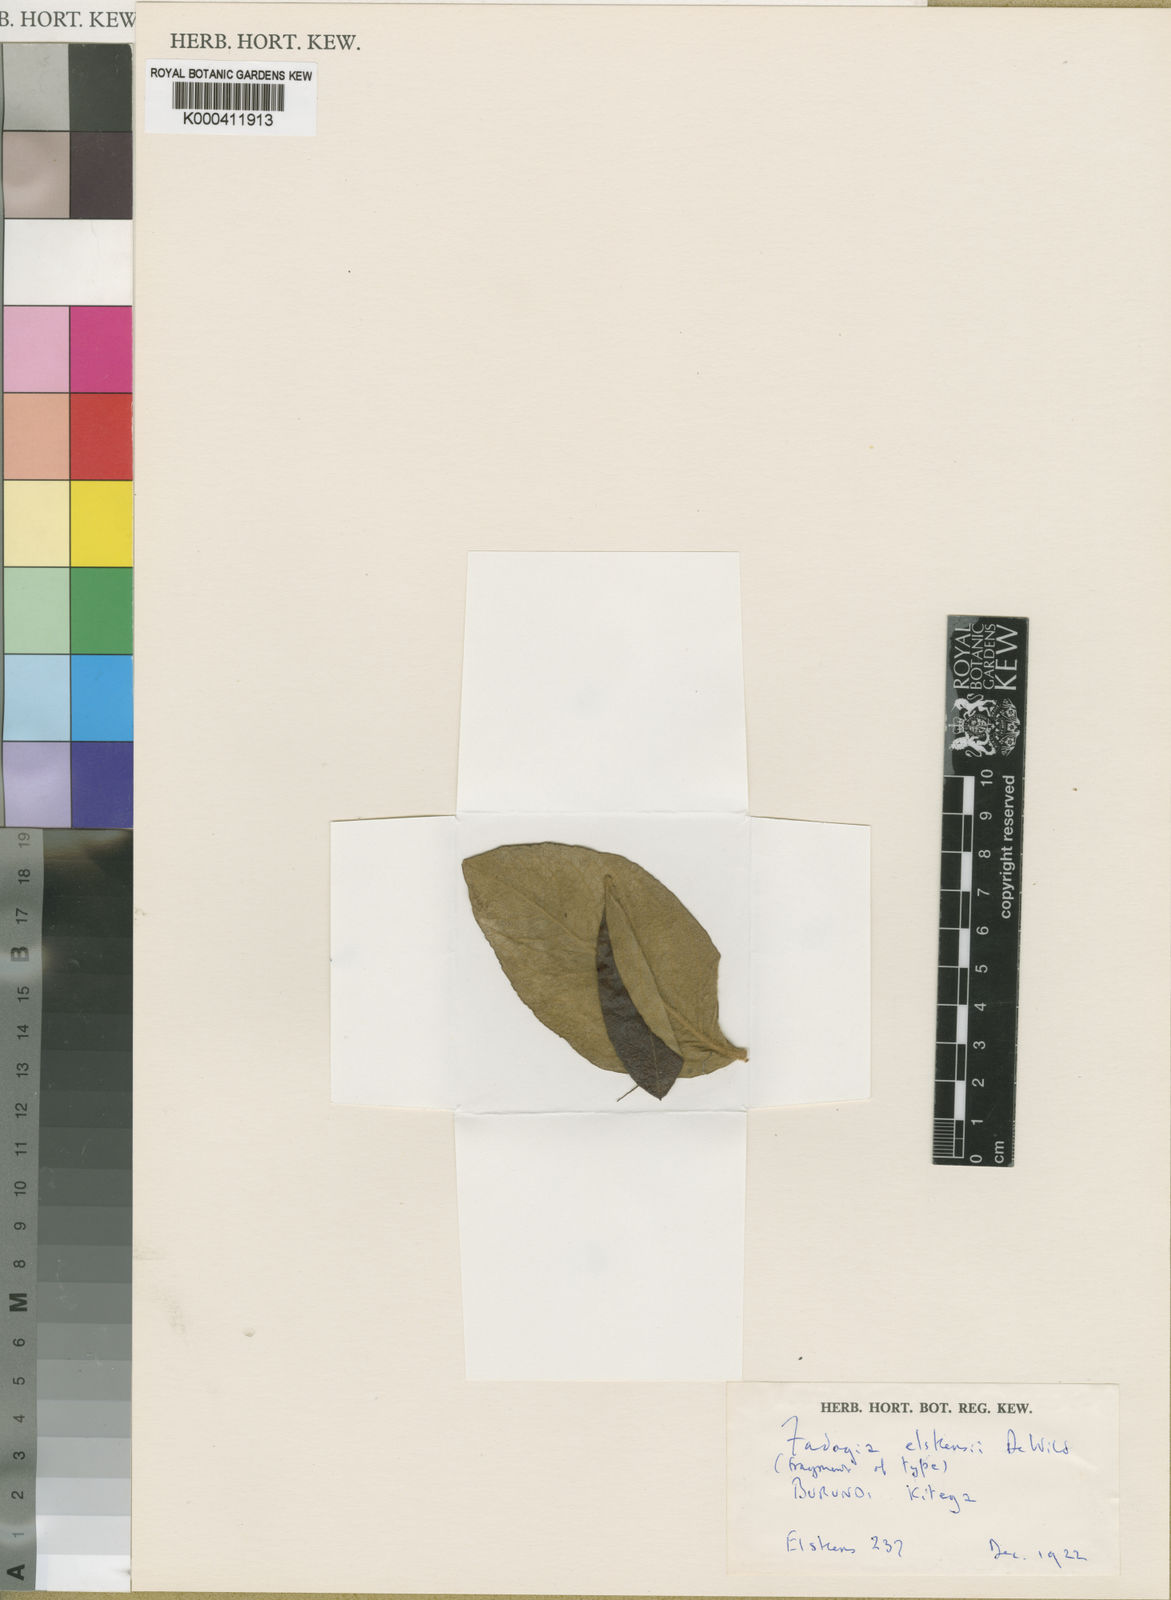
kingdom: Plantae
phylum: Tracheophyta
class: Magnoliopsida
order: Gentianales
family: Rubiaceae
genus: Fadogia
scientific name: Fadogia elskensii
